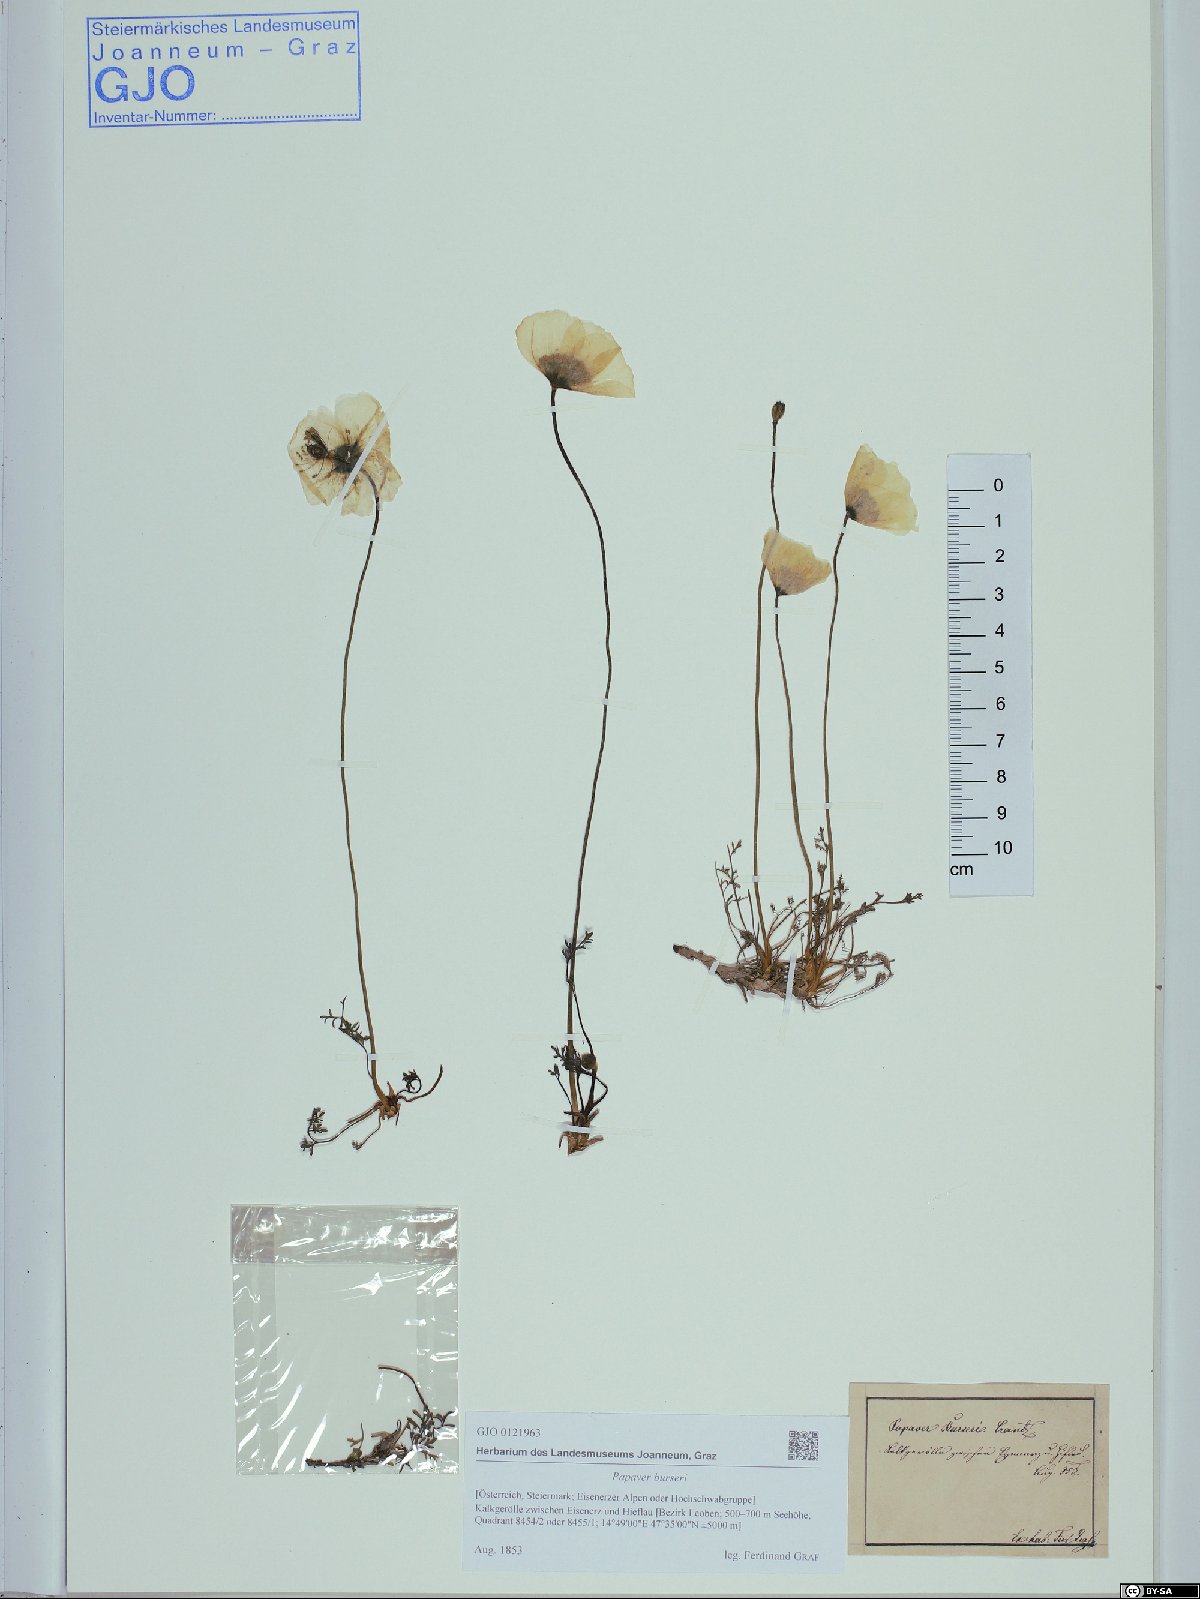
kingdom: Plantae
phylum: Tracheophyta
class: Magnoliopsida
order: Ranunculales
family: Papaveraceae
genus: Papaver
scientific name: Papaver alpinum
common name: Austrian poppy
